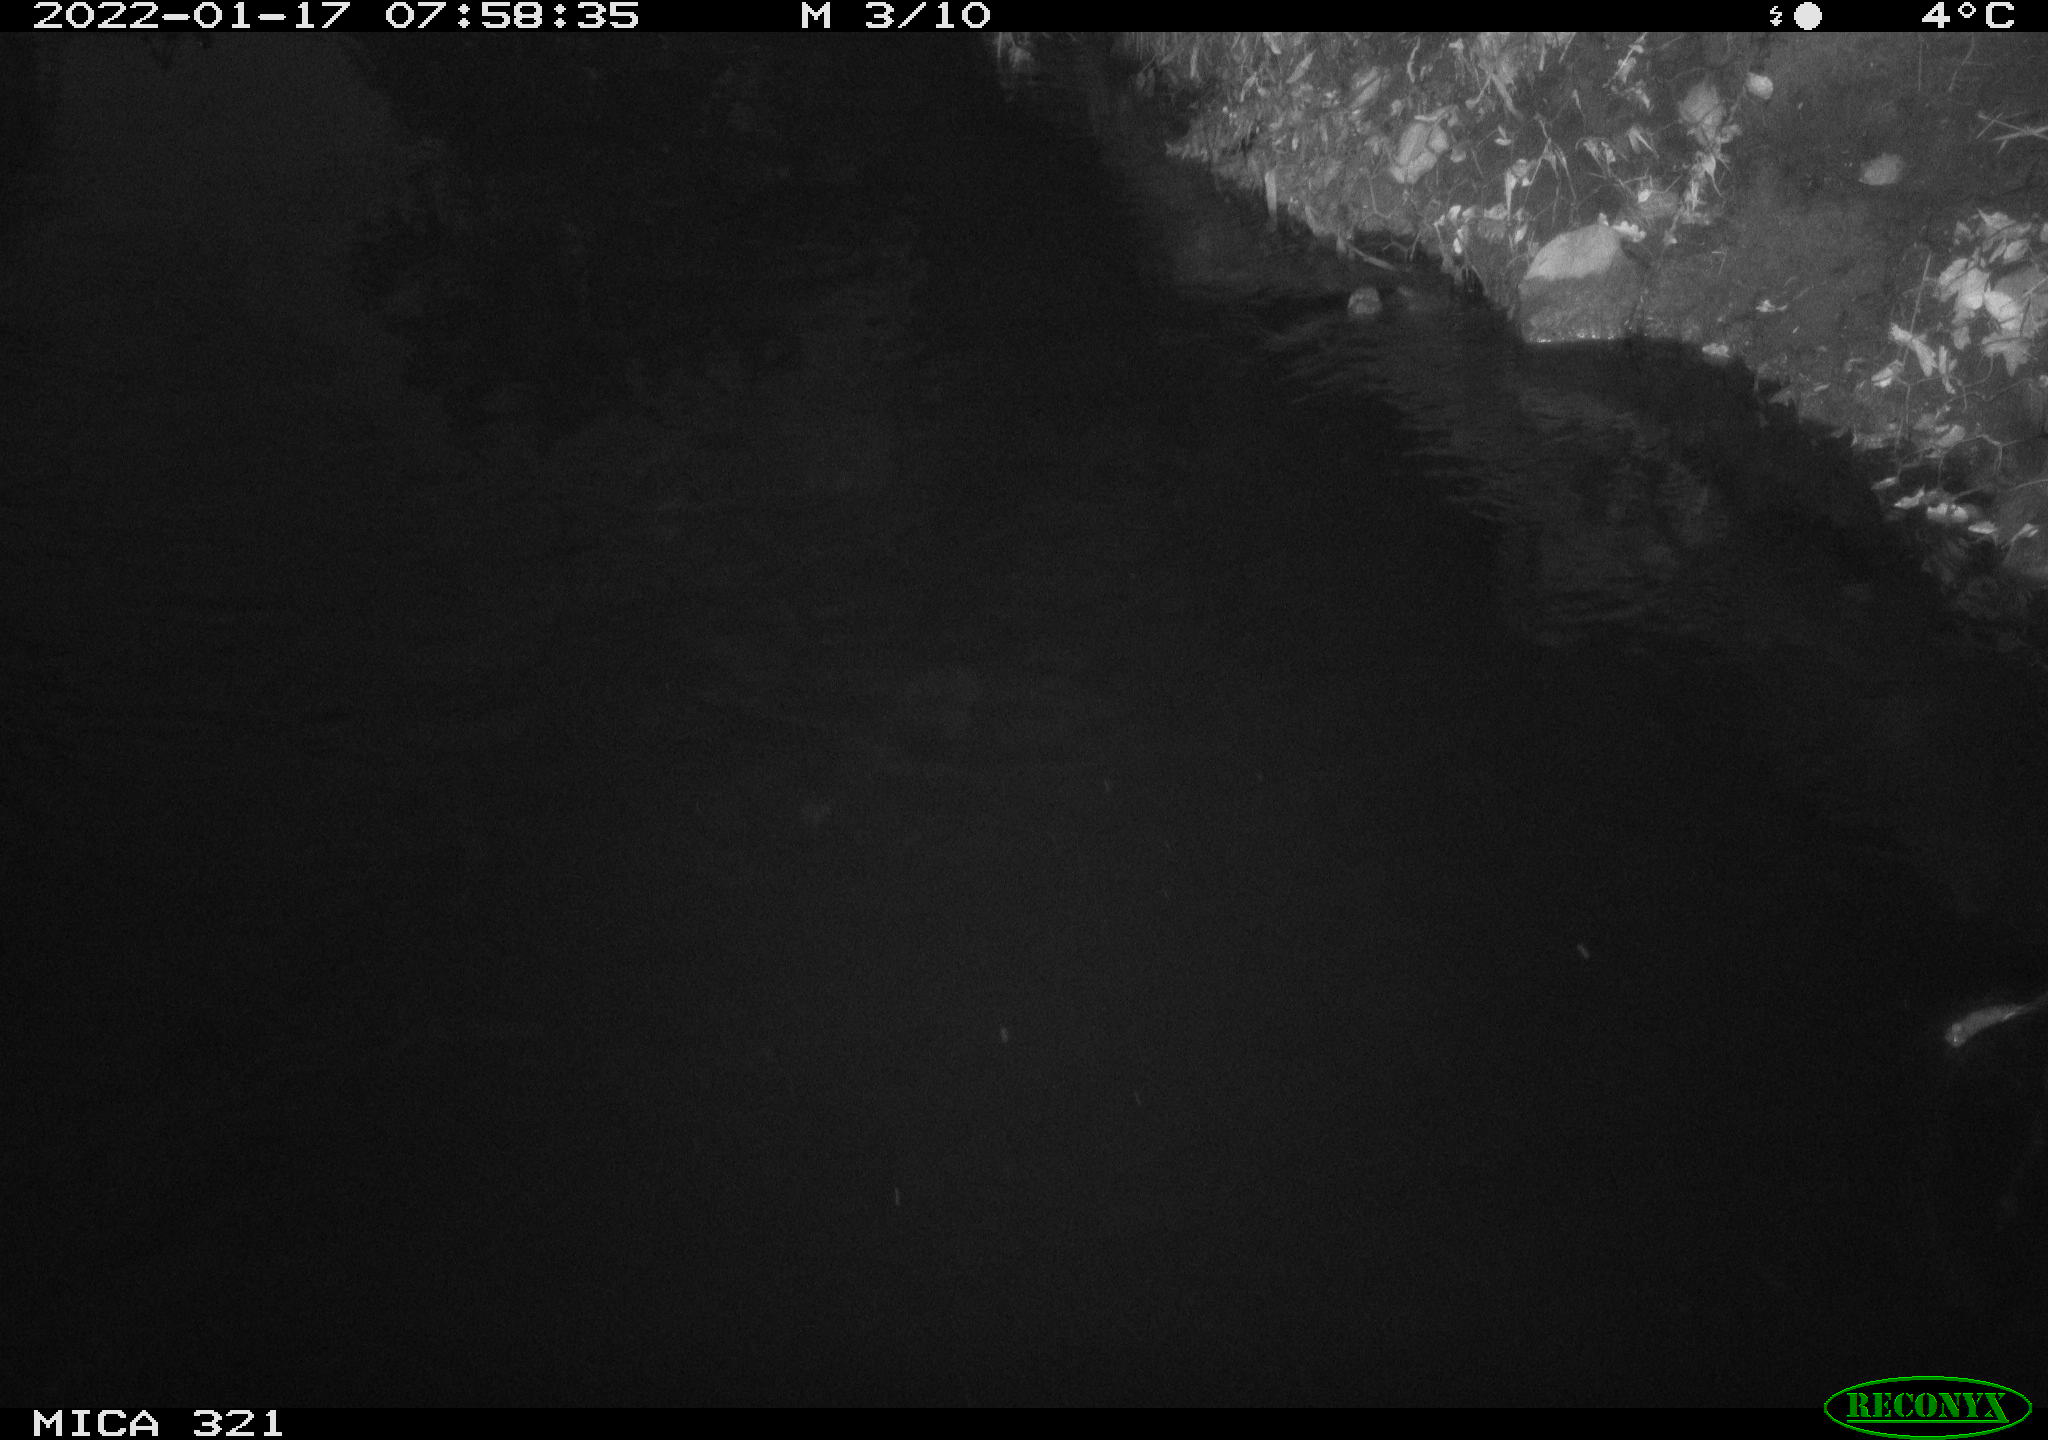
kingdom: Animalia
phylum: Chordata
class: Aves
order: Anseriformes
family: Anatidae
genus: Anas
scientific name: Anas
